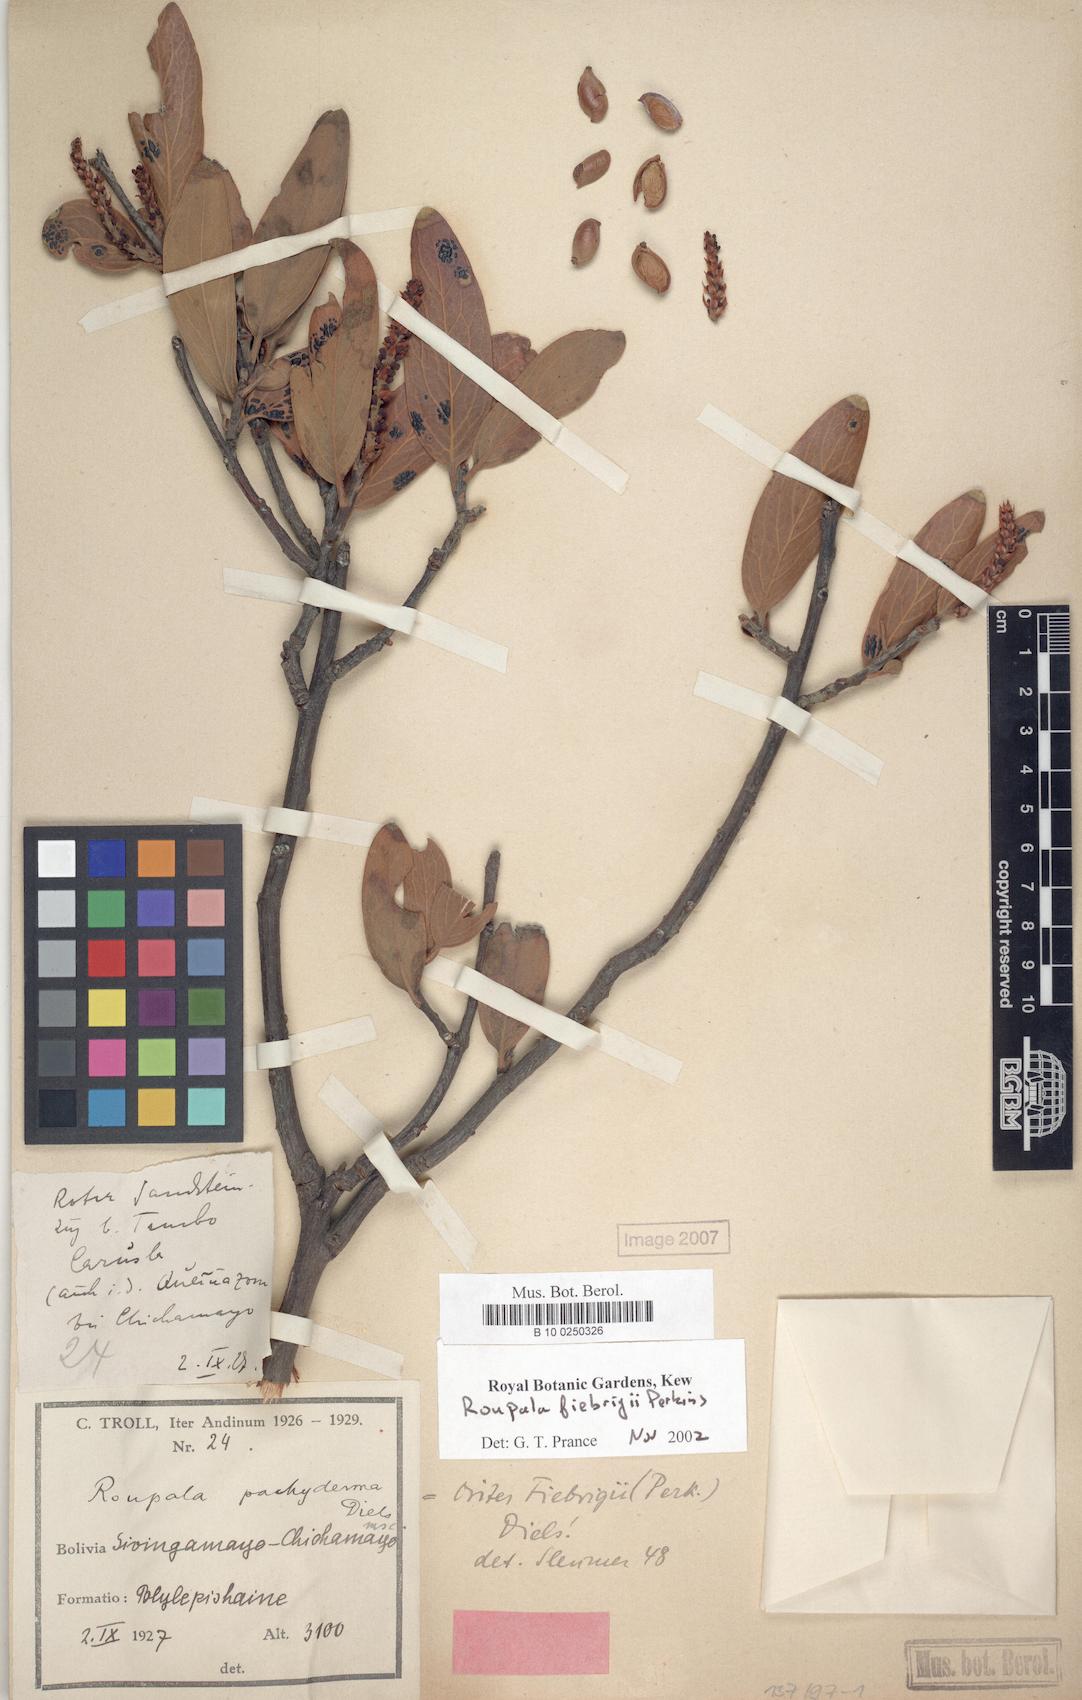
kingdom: Plantae
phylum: Tracheophyta
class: Magnoliopsida
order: Proteales
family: Proteaceae
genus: Orites
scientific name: Orites fiebrigii
